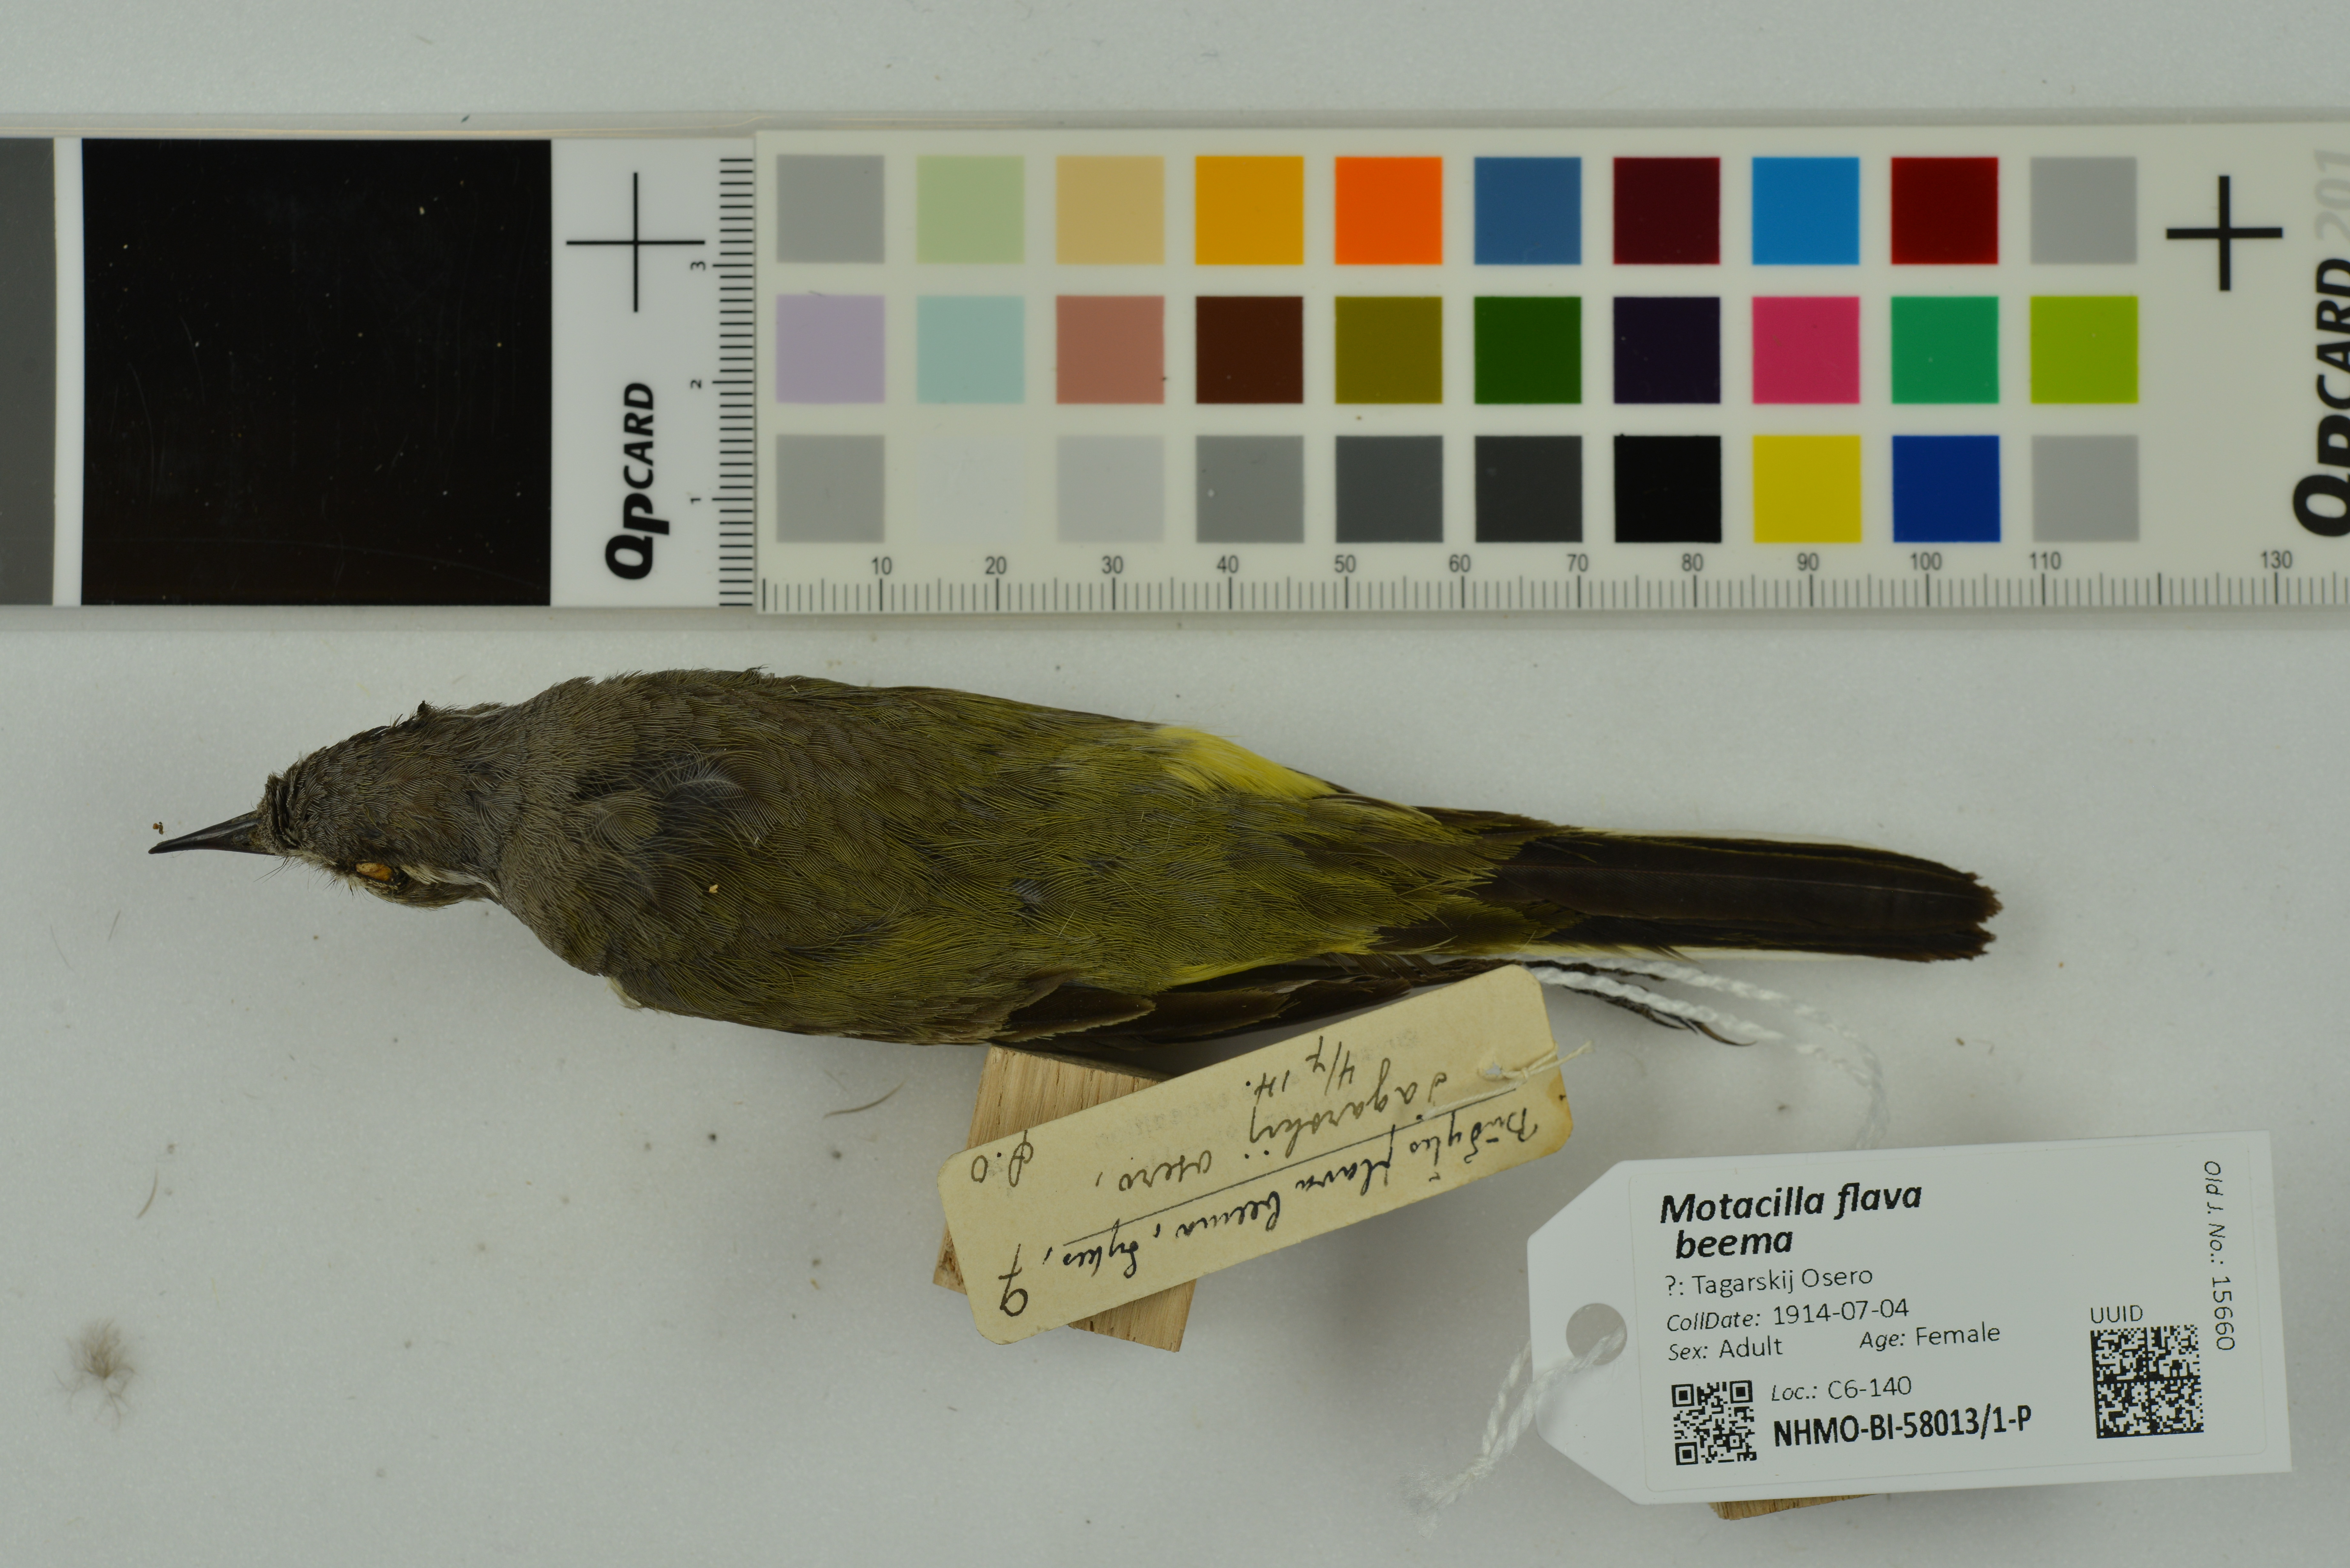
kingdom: Animalia
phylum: Chordata
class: Aves
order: Passeriformes
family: Motacillidae
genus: Motacilla
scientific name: Motacilla flava
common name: Western yellow wagtail
